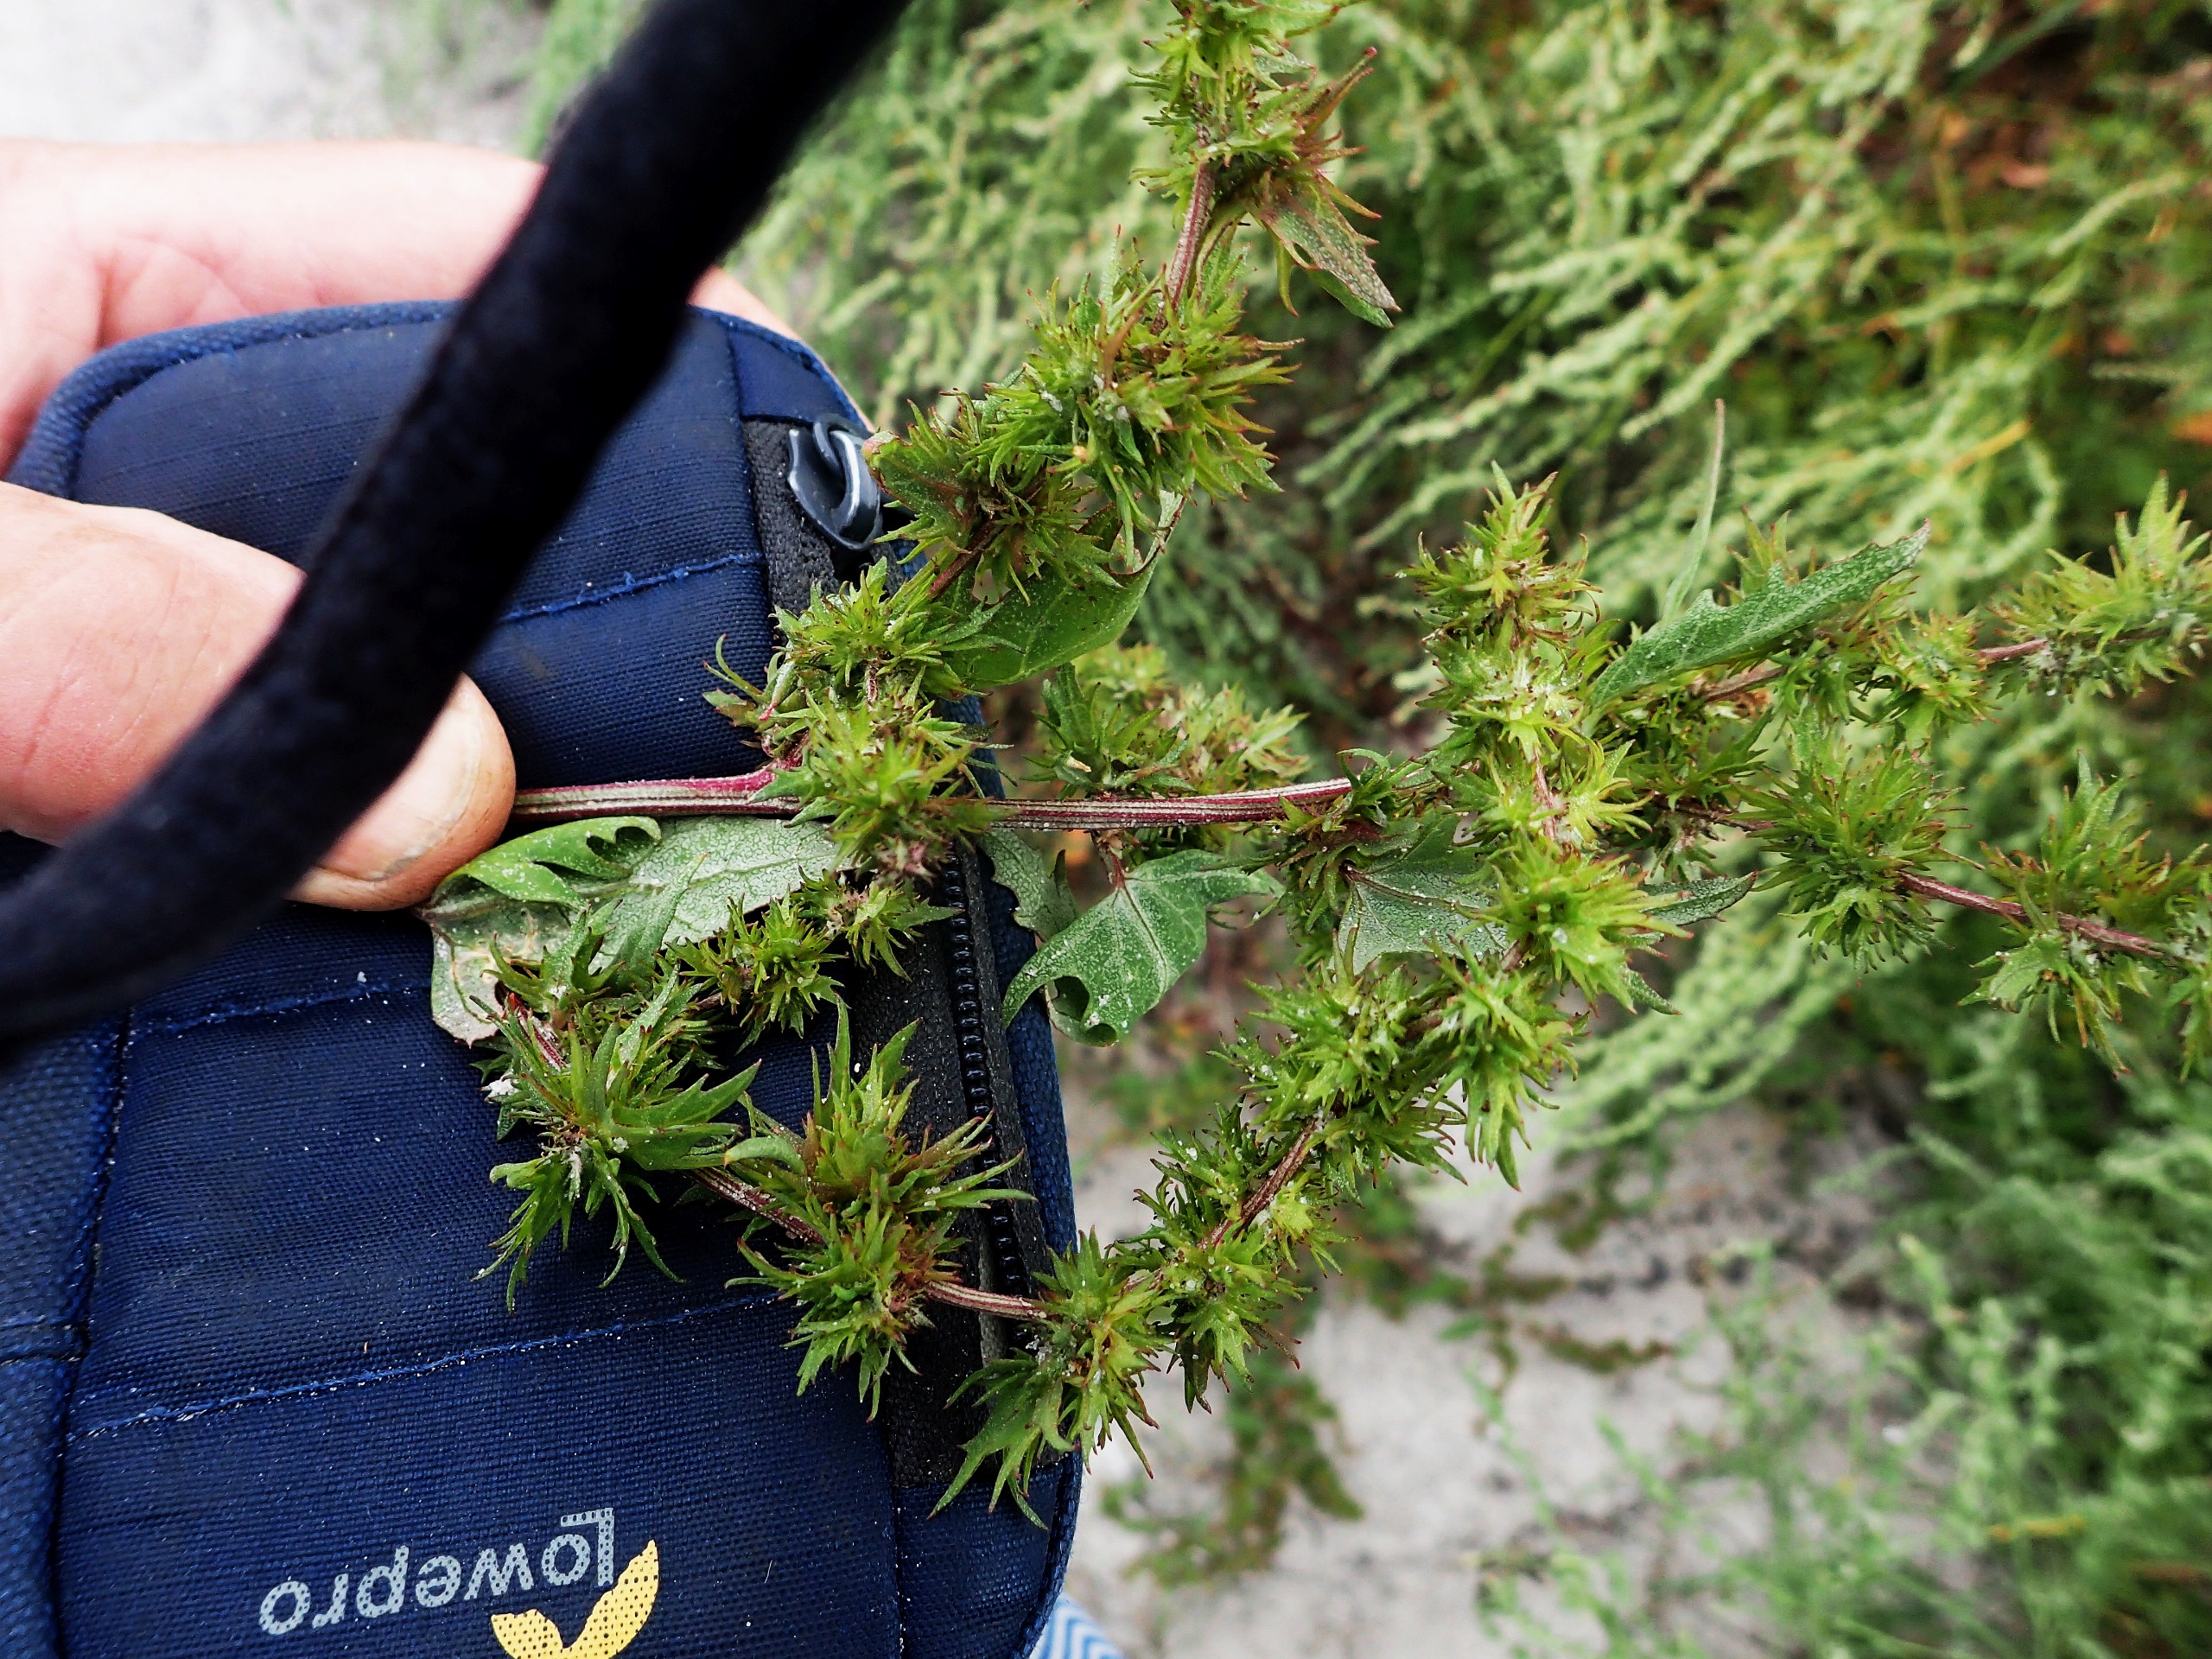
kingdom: Plantae
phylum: Tracheophyta
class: Magnoliopsida
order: Caryophyllales
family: Amaranthaceae
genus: Atriplex
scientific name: Atriplex calotheca
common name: Skønbægret mælde
